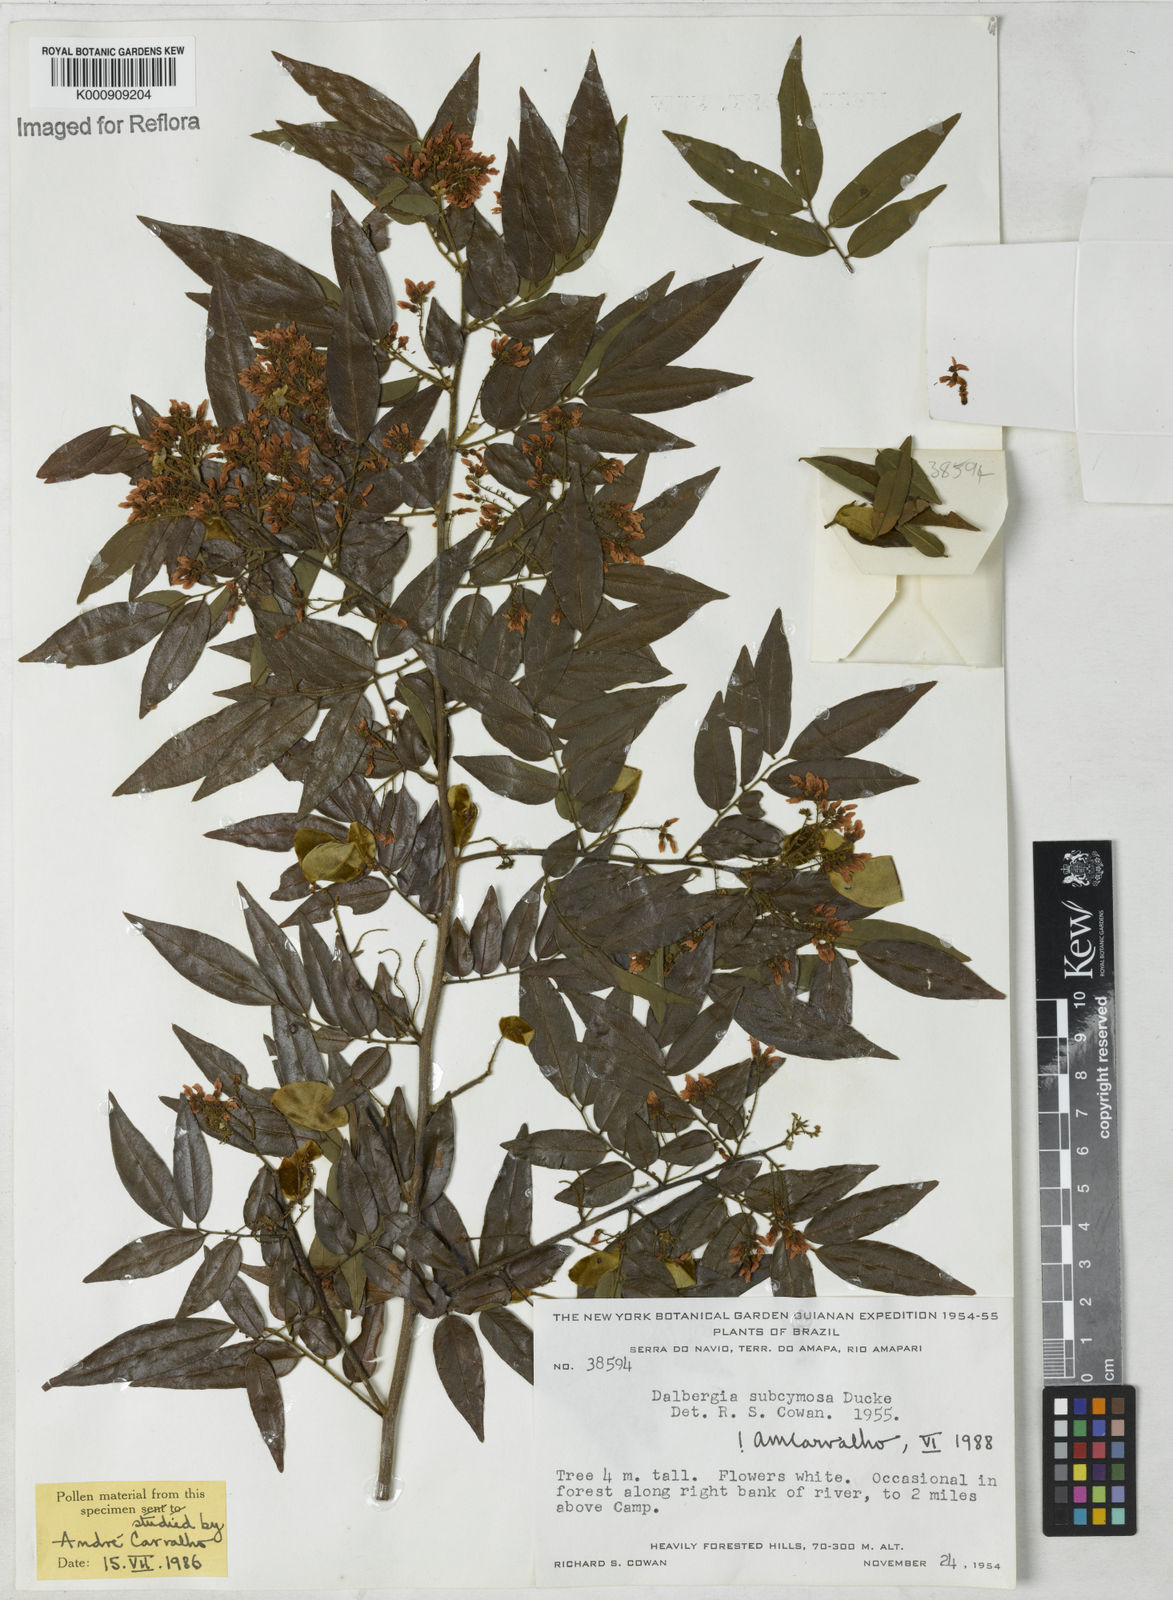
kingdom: Plantae
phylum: Tracheophyta
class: Magnoliopsida
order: Fabales
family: Fabaceae
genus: Dalbergia
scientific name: Dalbergia subcymosa
